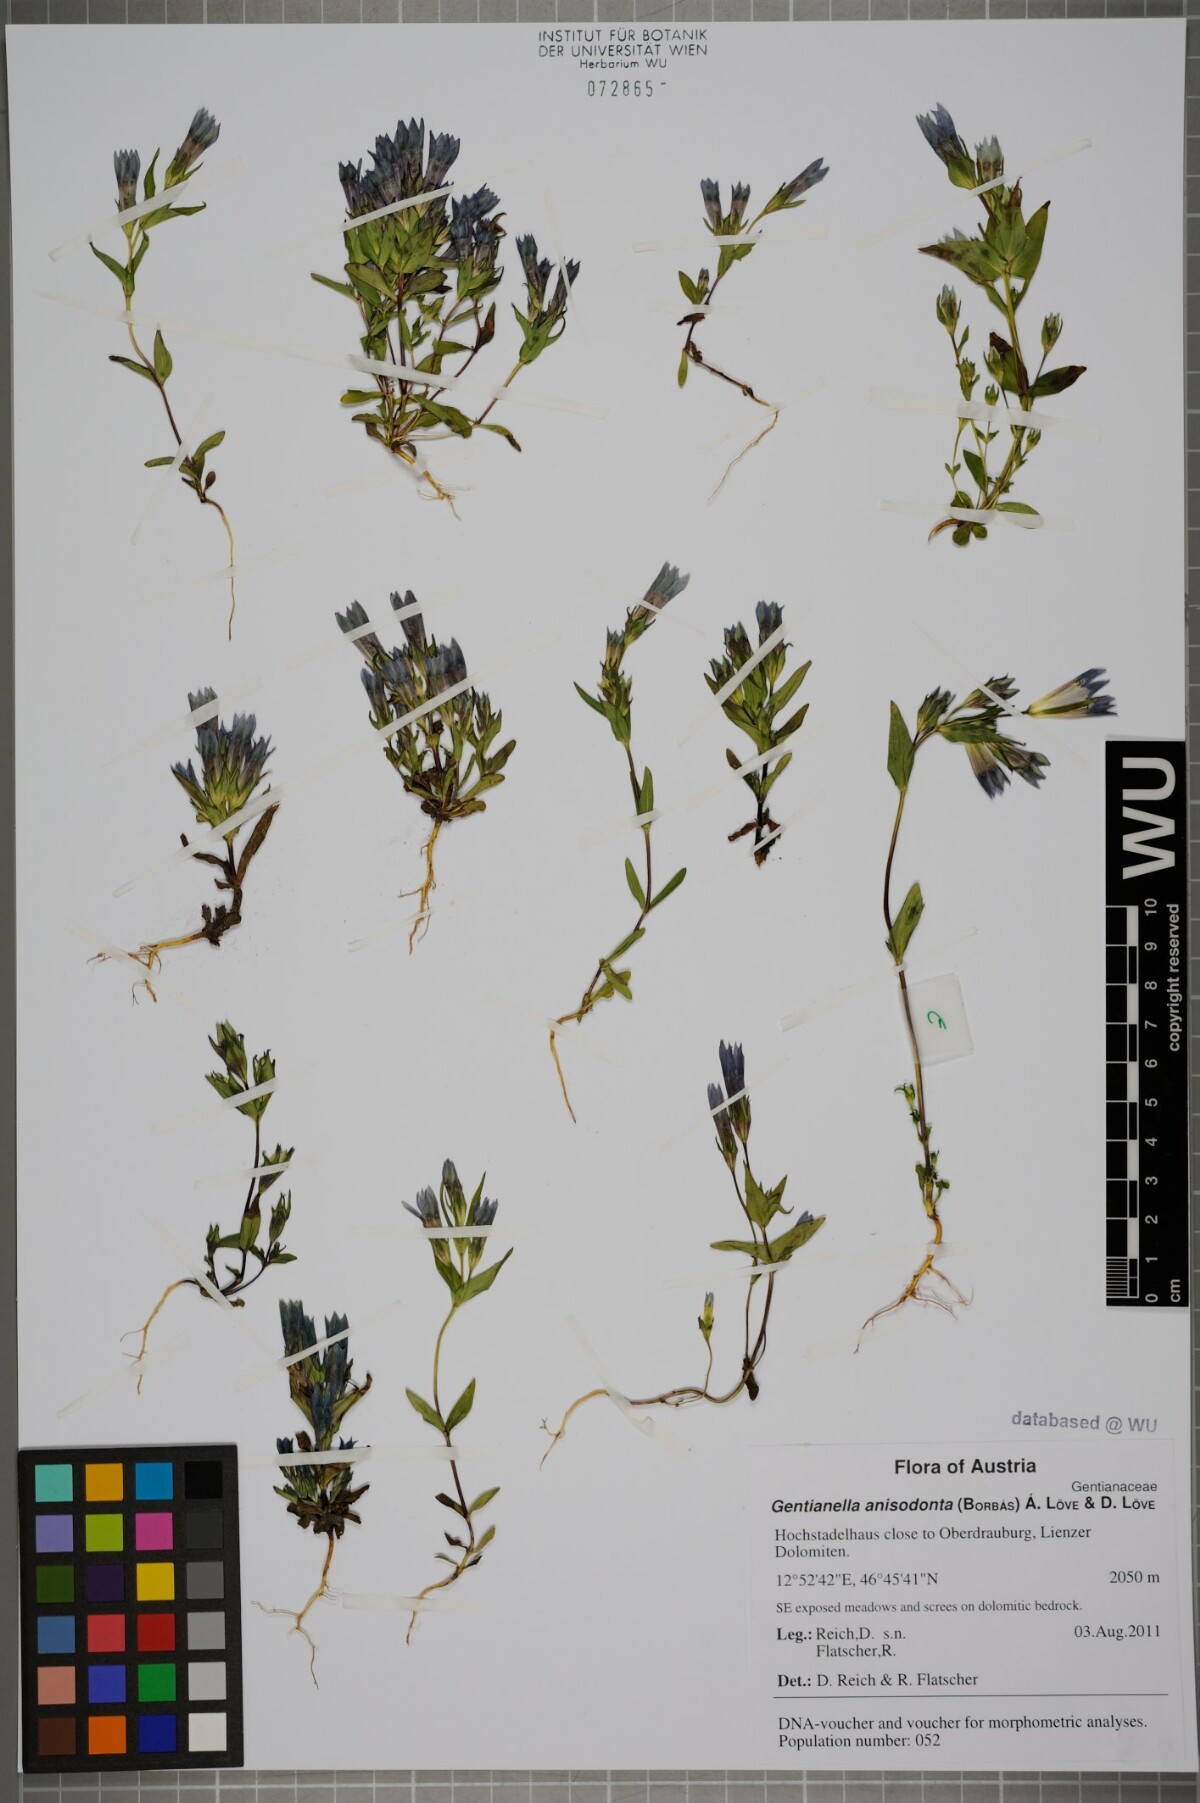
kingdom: Plantae
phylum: Tracheophyta
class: Magnoliopsida
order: Gentianales
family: Gentianaceae
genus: Gentianella
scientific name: Gentianella anisodonta
